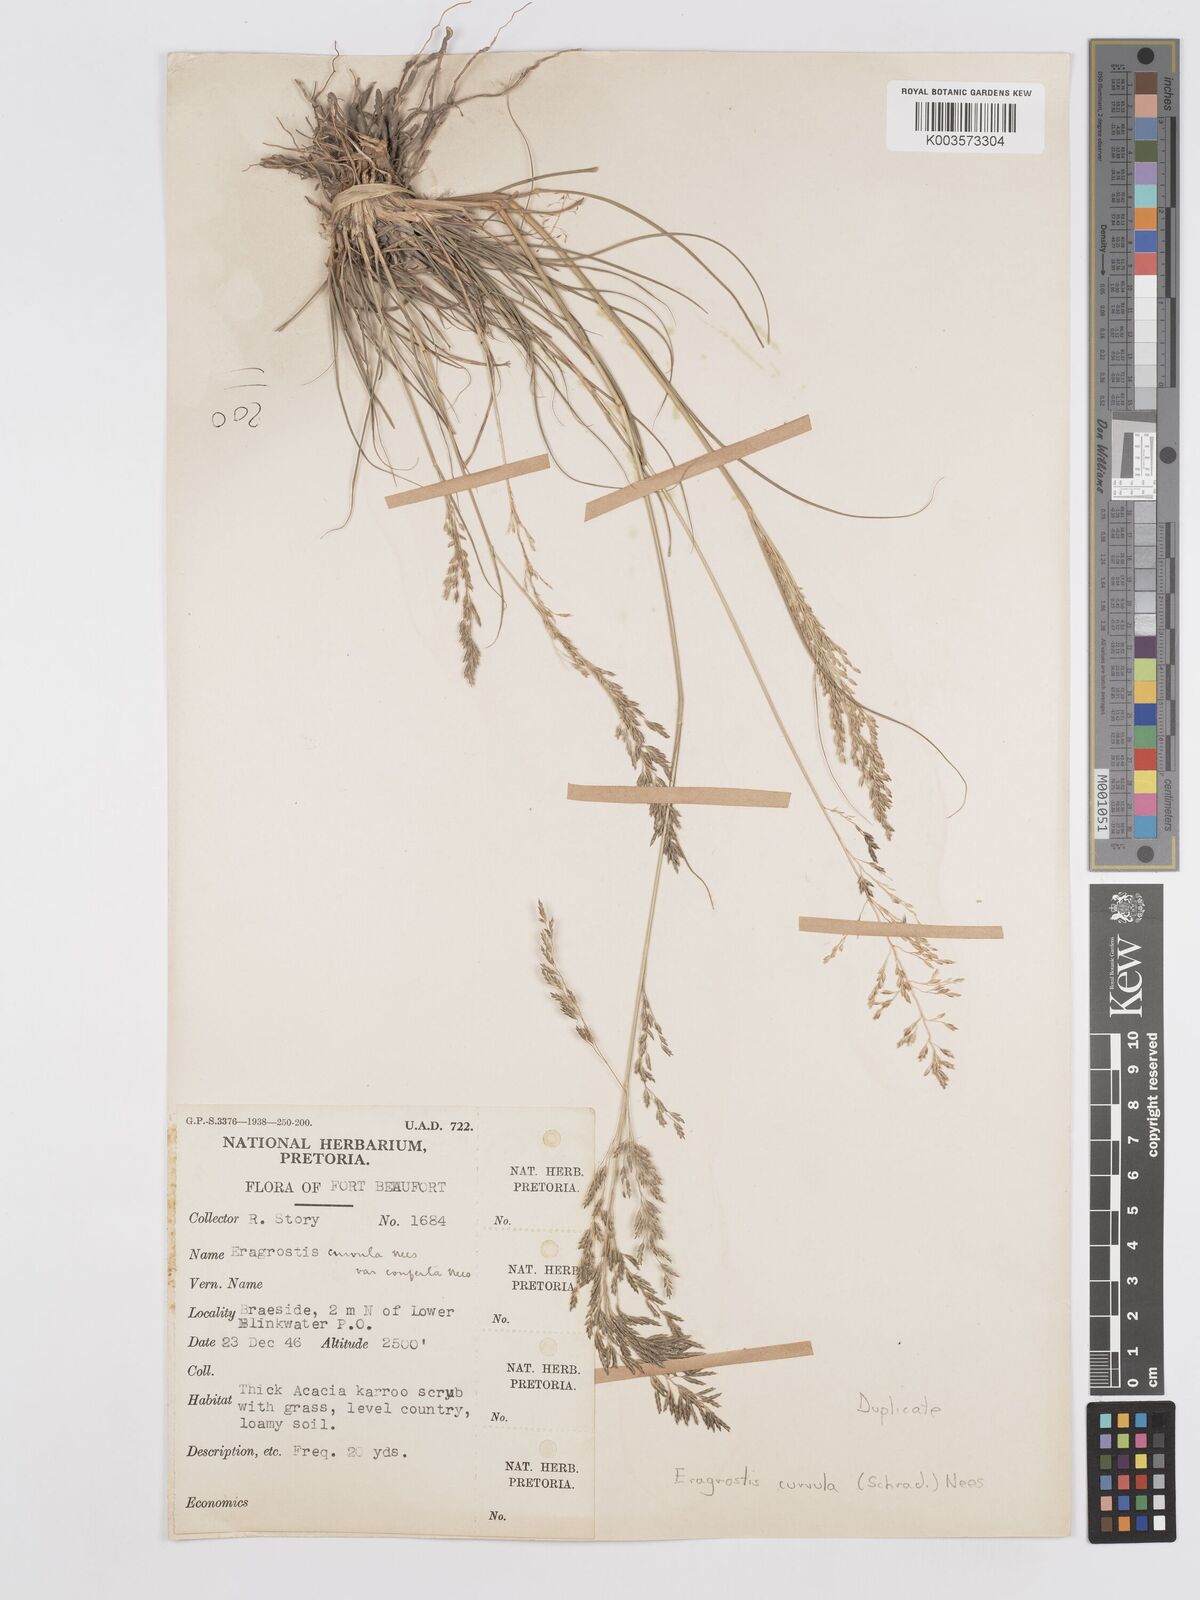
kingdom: Plantae
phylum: Tracheophyta
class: Liliopsida
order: Poales
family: Poaceae
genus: Eragrostis
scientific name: Eragrostis curvula
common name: African love-grass
